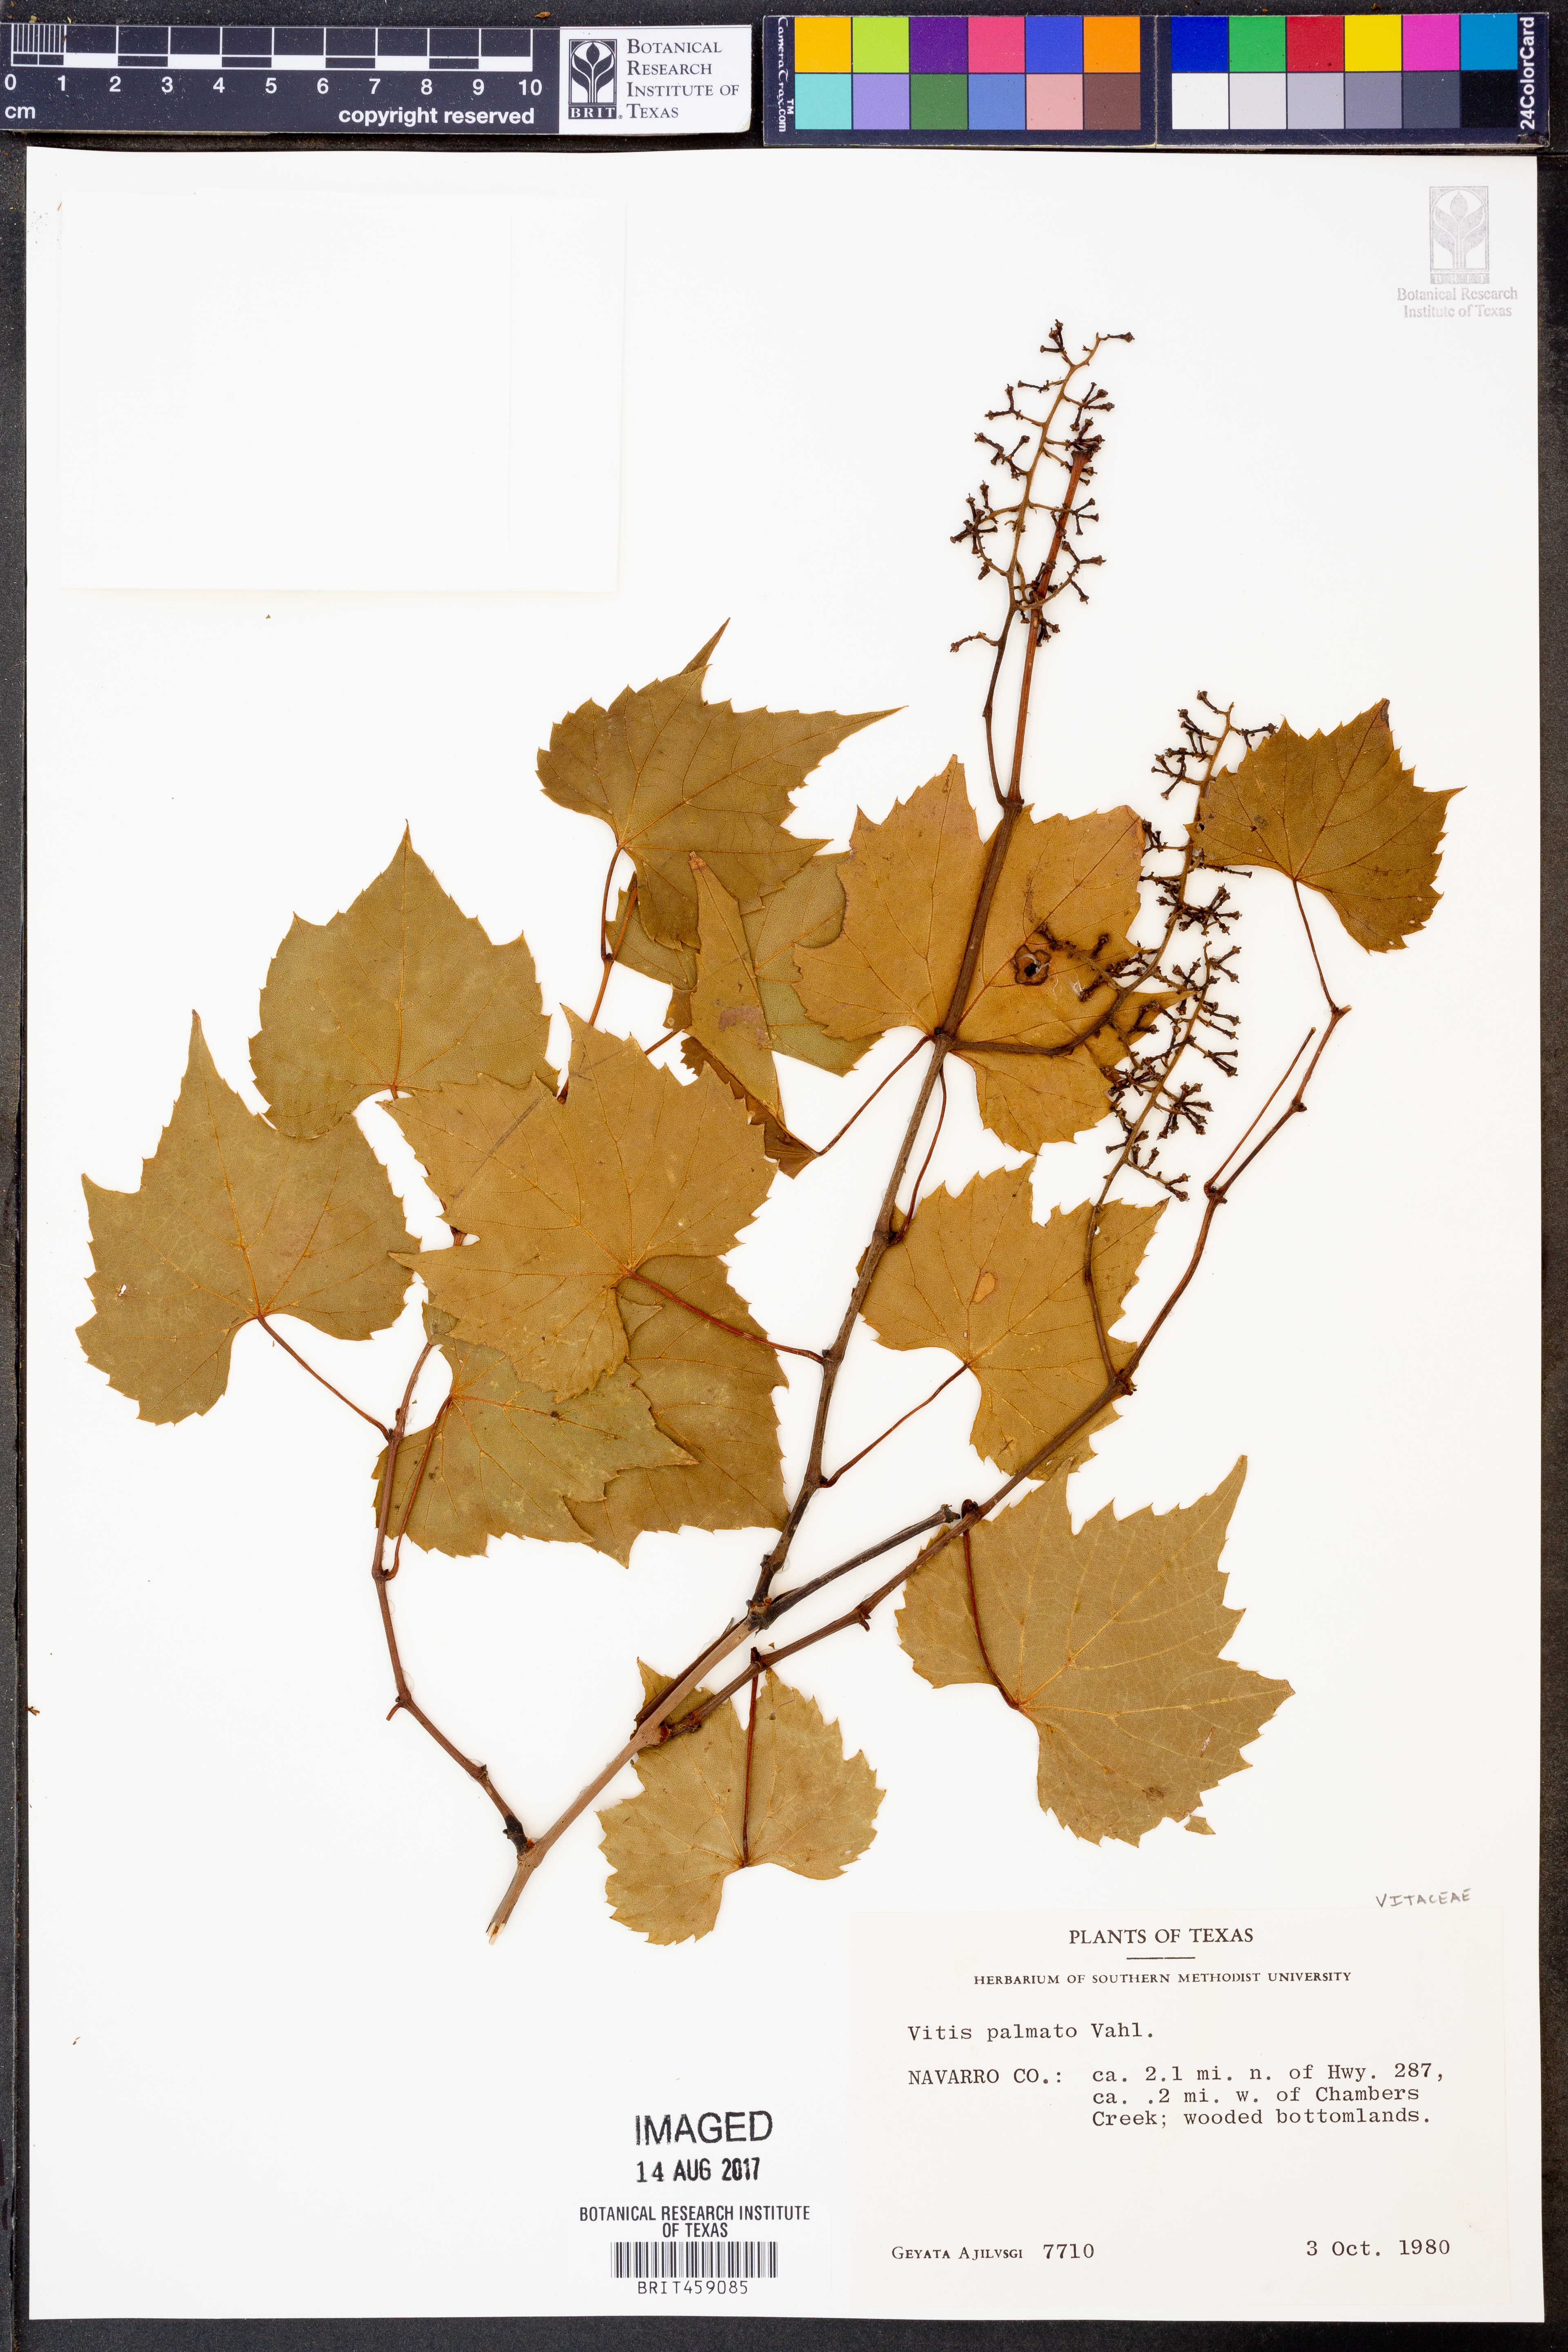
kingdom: Plantae
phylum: Tracheophyta
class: Magnoliopsida
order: Vitales
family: Vitaceae
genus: Vitis
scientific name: Vitis palmata
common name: Catbird grape
